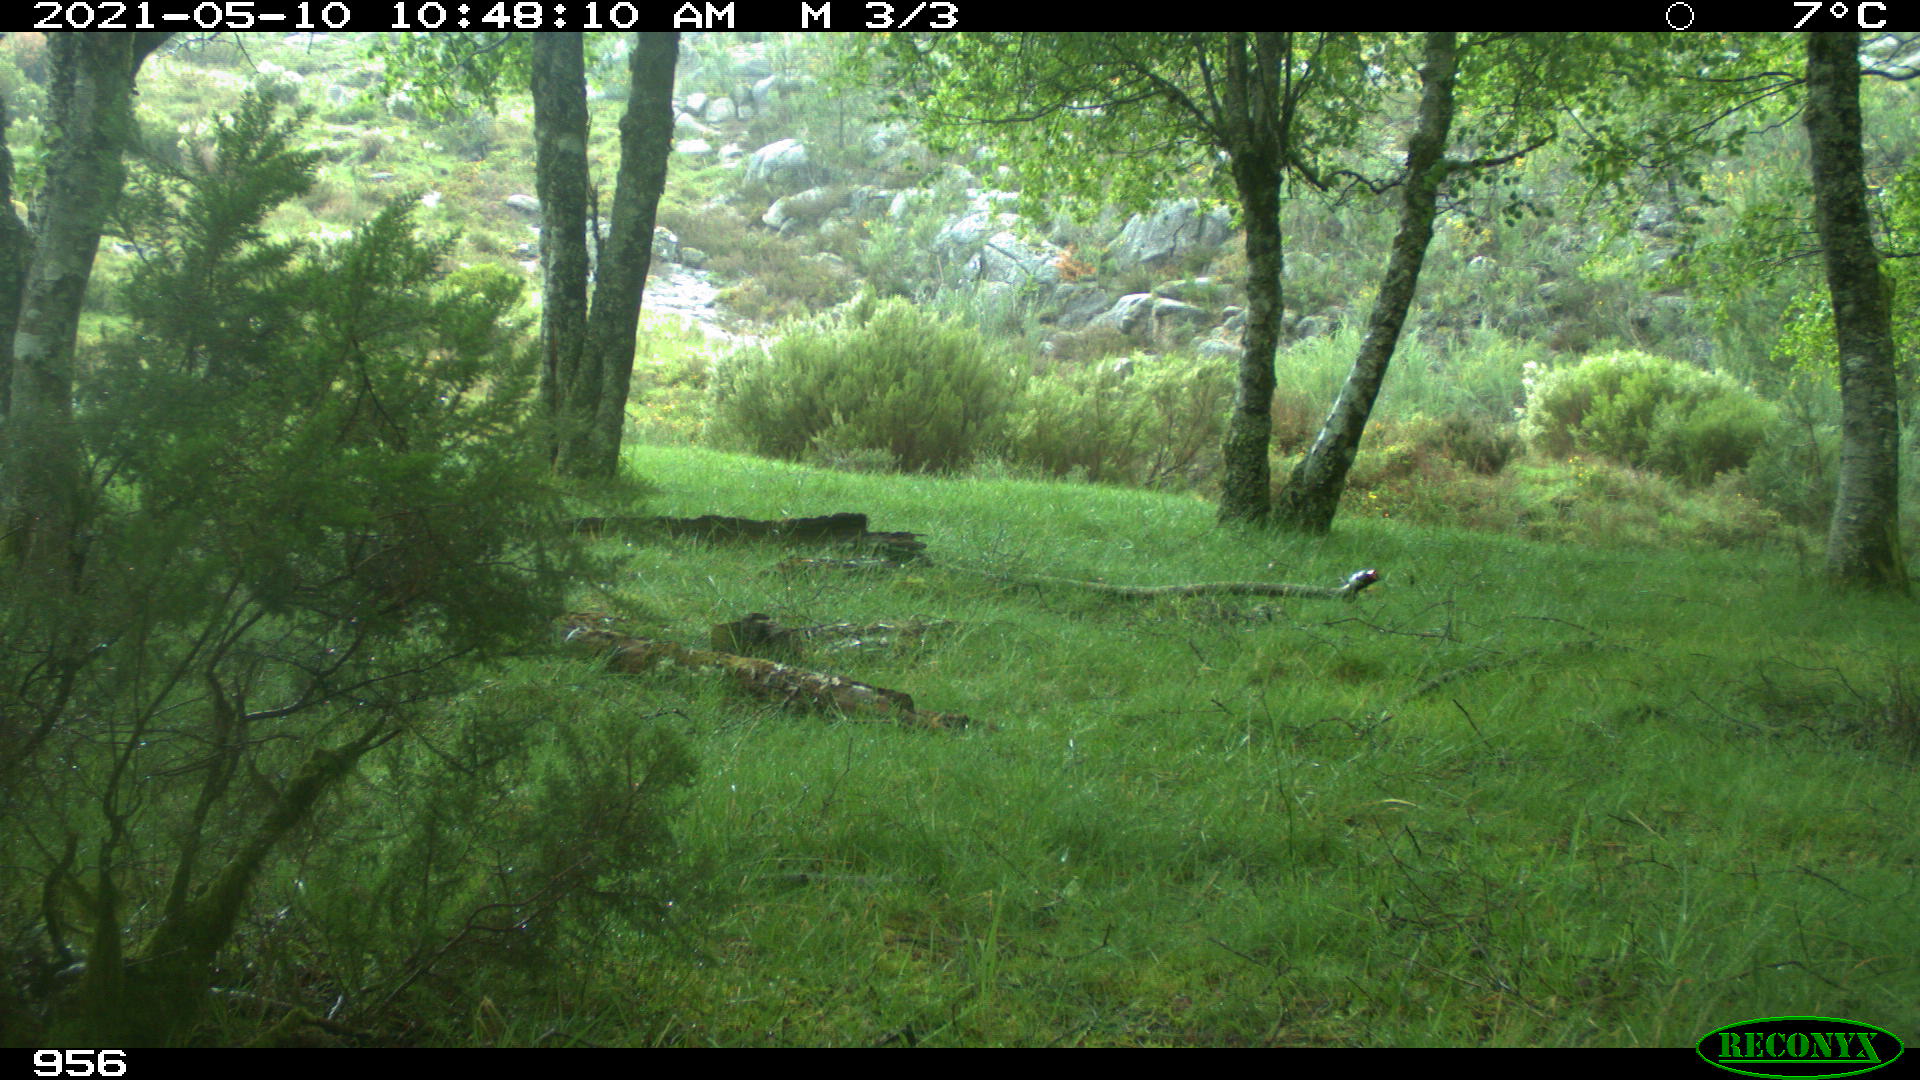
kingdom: Animalia
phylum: Chordata
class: Mammalia
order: Perissodactyla
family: Equidae
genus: Equus
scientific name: Equus caballus
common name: Horse
